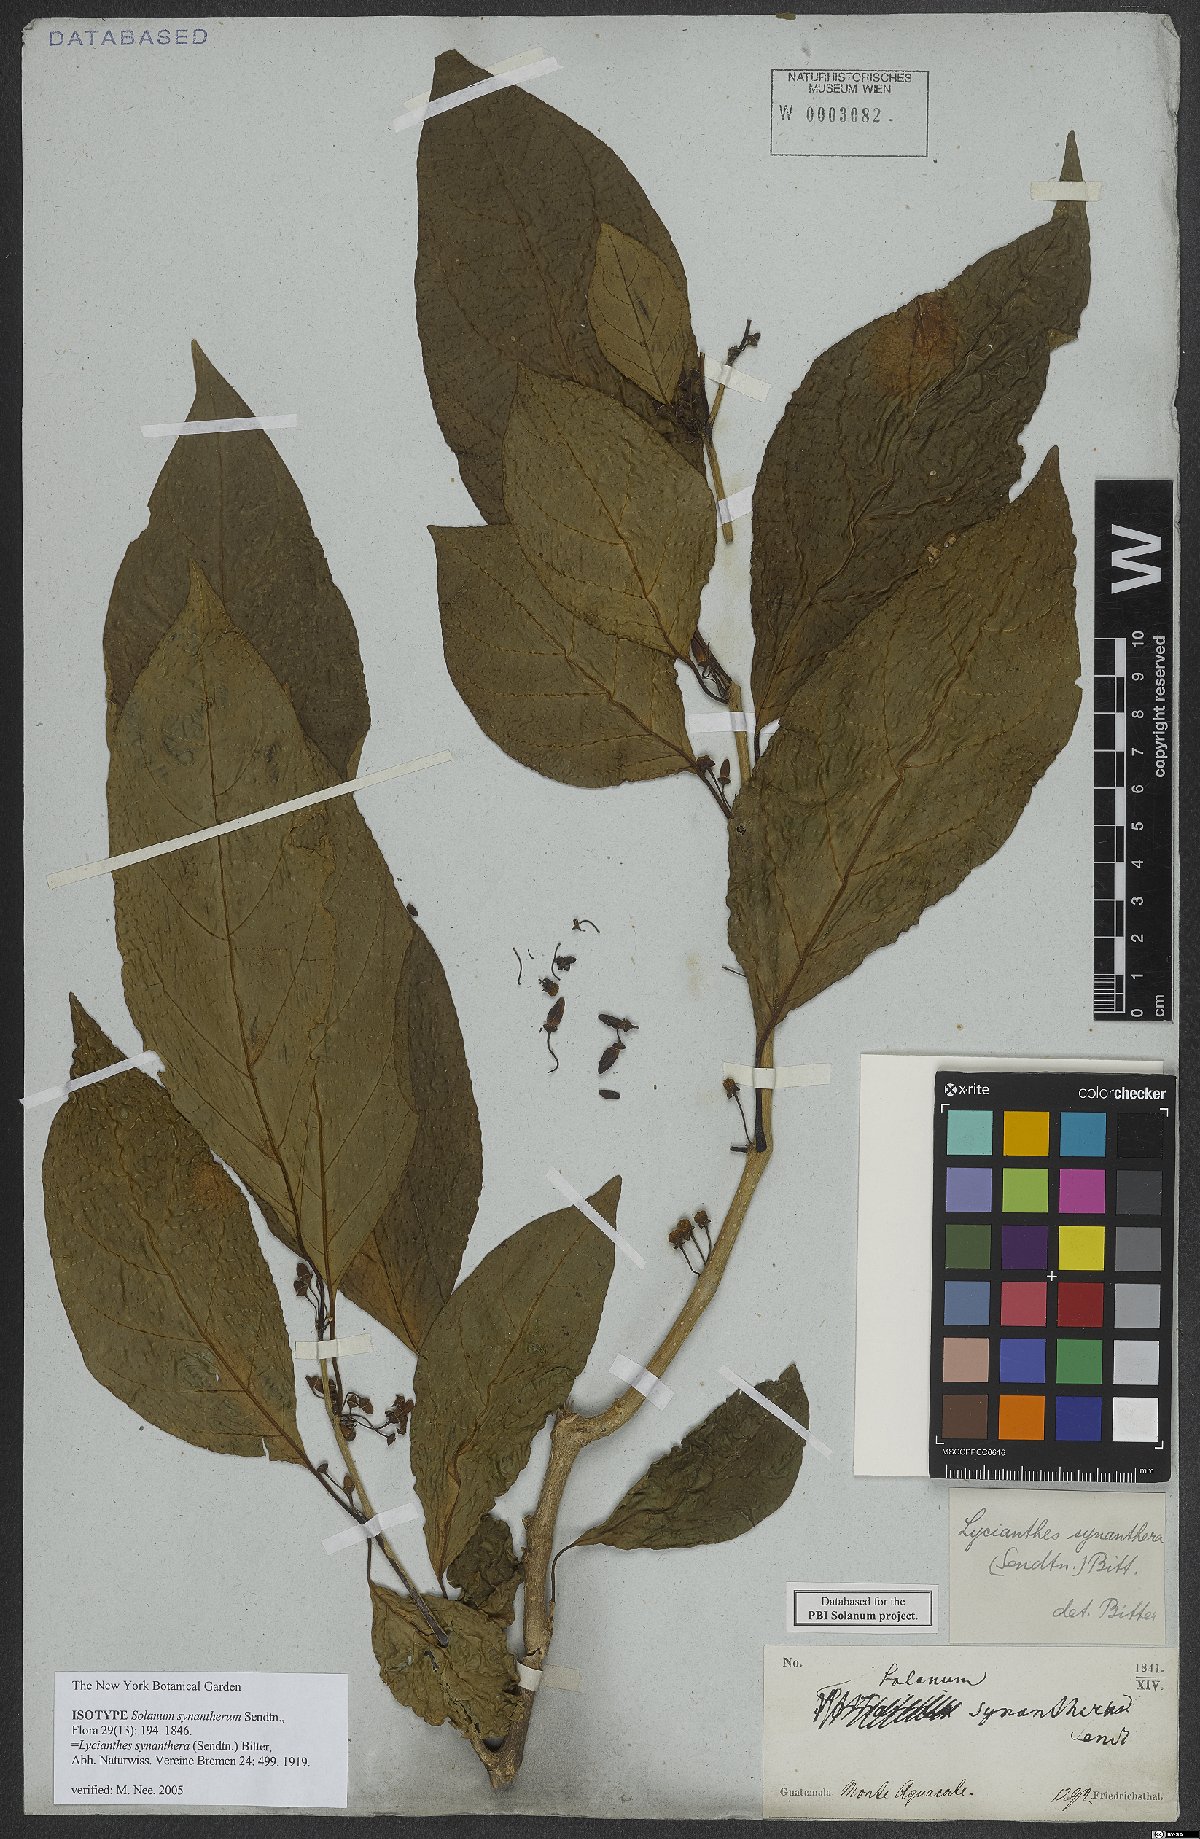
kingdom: Plantae
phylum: Tracheophyta
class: Magnoliopsida
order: Solanales
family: Solanaceae
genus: Lycianthes
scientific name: Lycianthes synanthera
